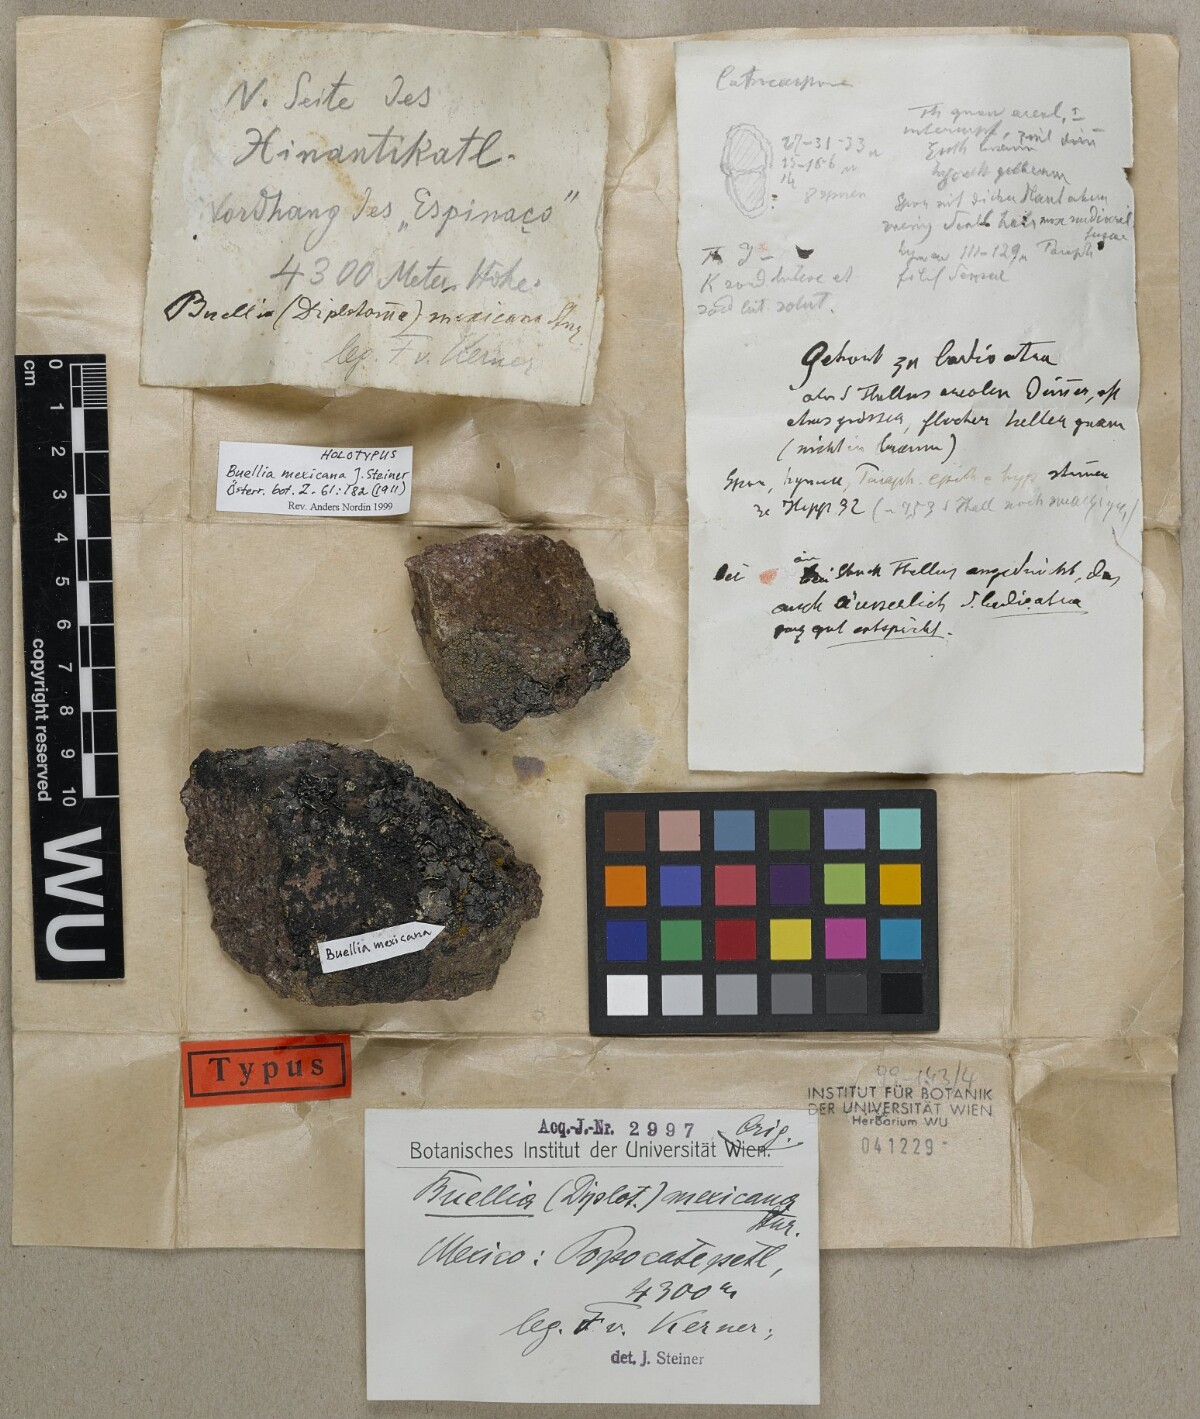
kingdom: Fungi
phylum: Ascomycota
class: Lecanoromycetes
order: Caliciales
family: Physciaceae
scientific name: Physciaceae
